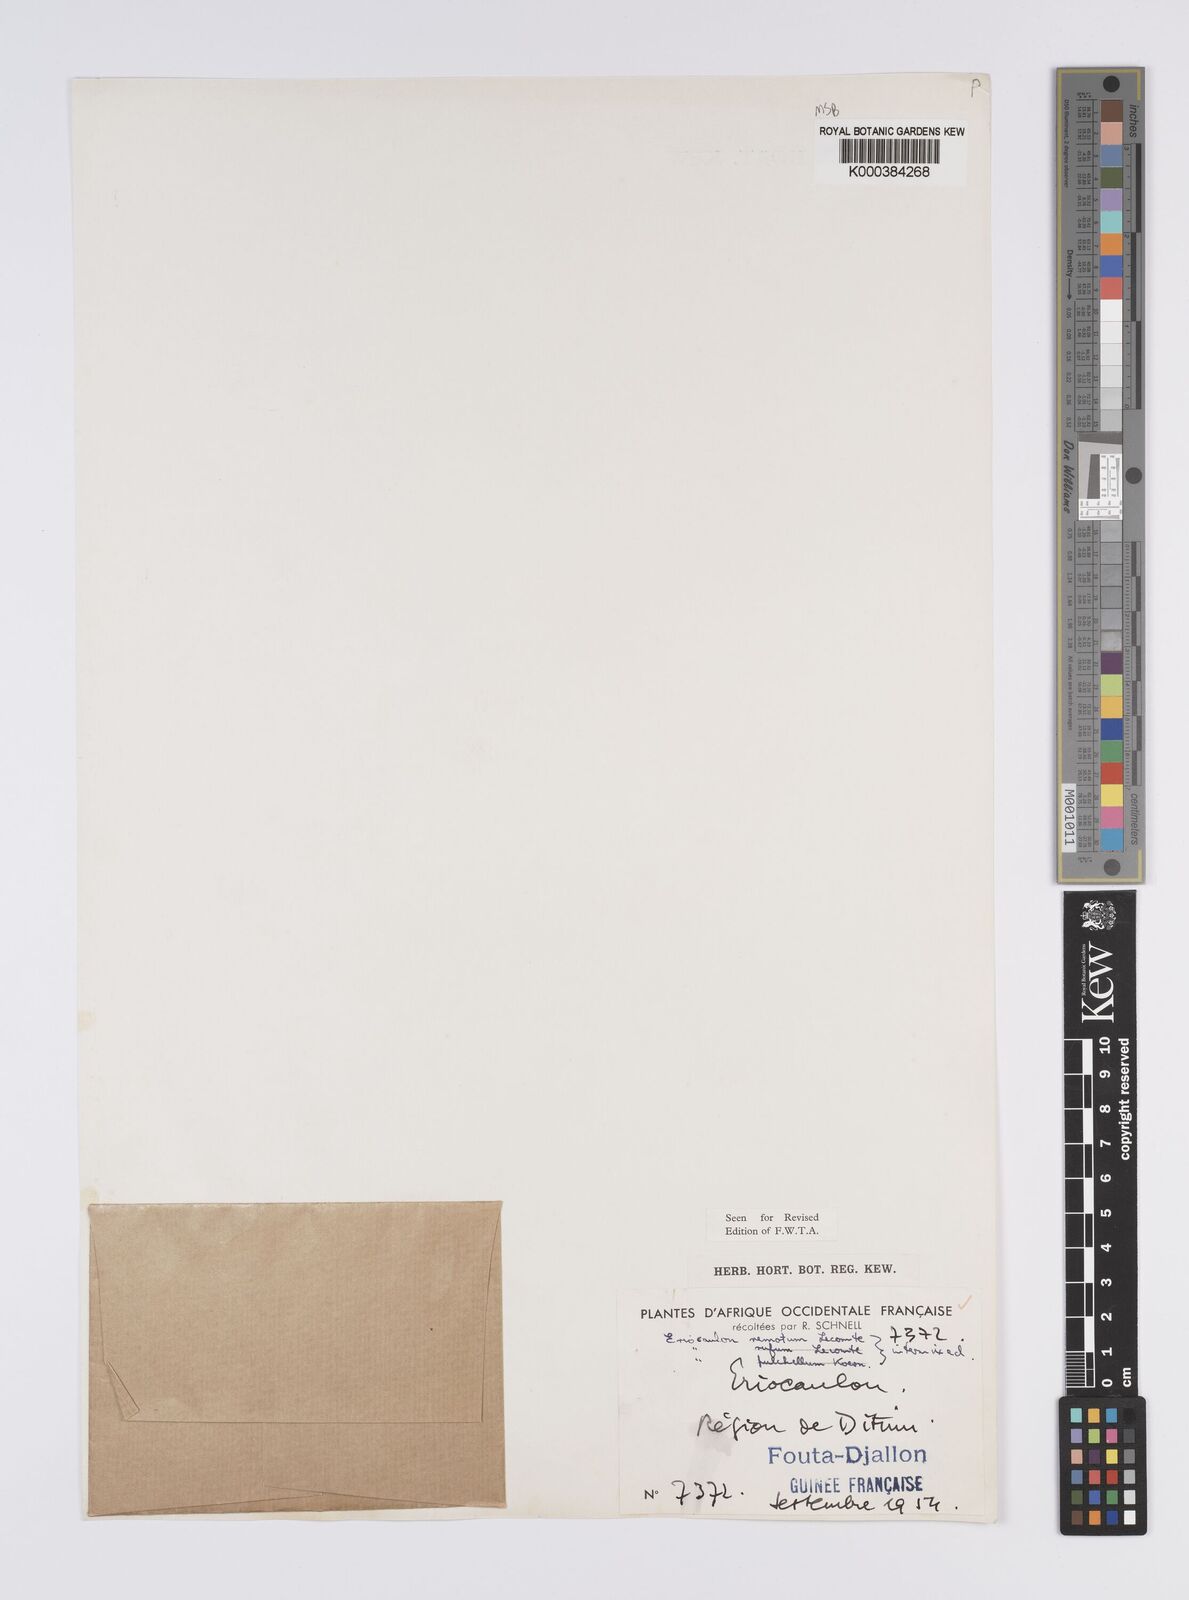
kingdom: Plantae
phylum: Tracheophyta
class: Liliopsida
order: Poales
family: Eriocaulaceae
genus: Eriocaulon
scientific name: Eriocaulon remotum
